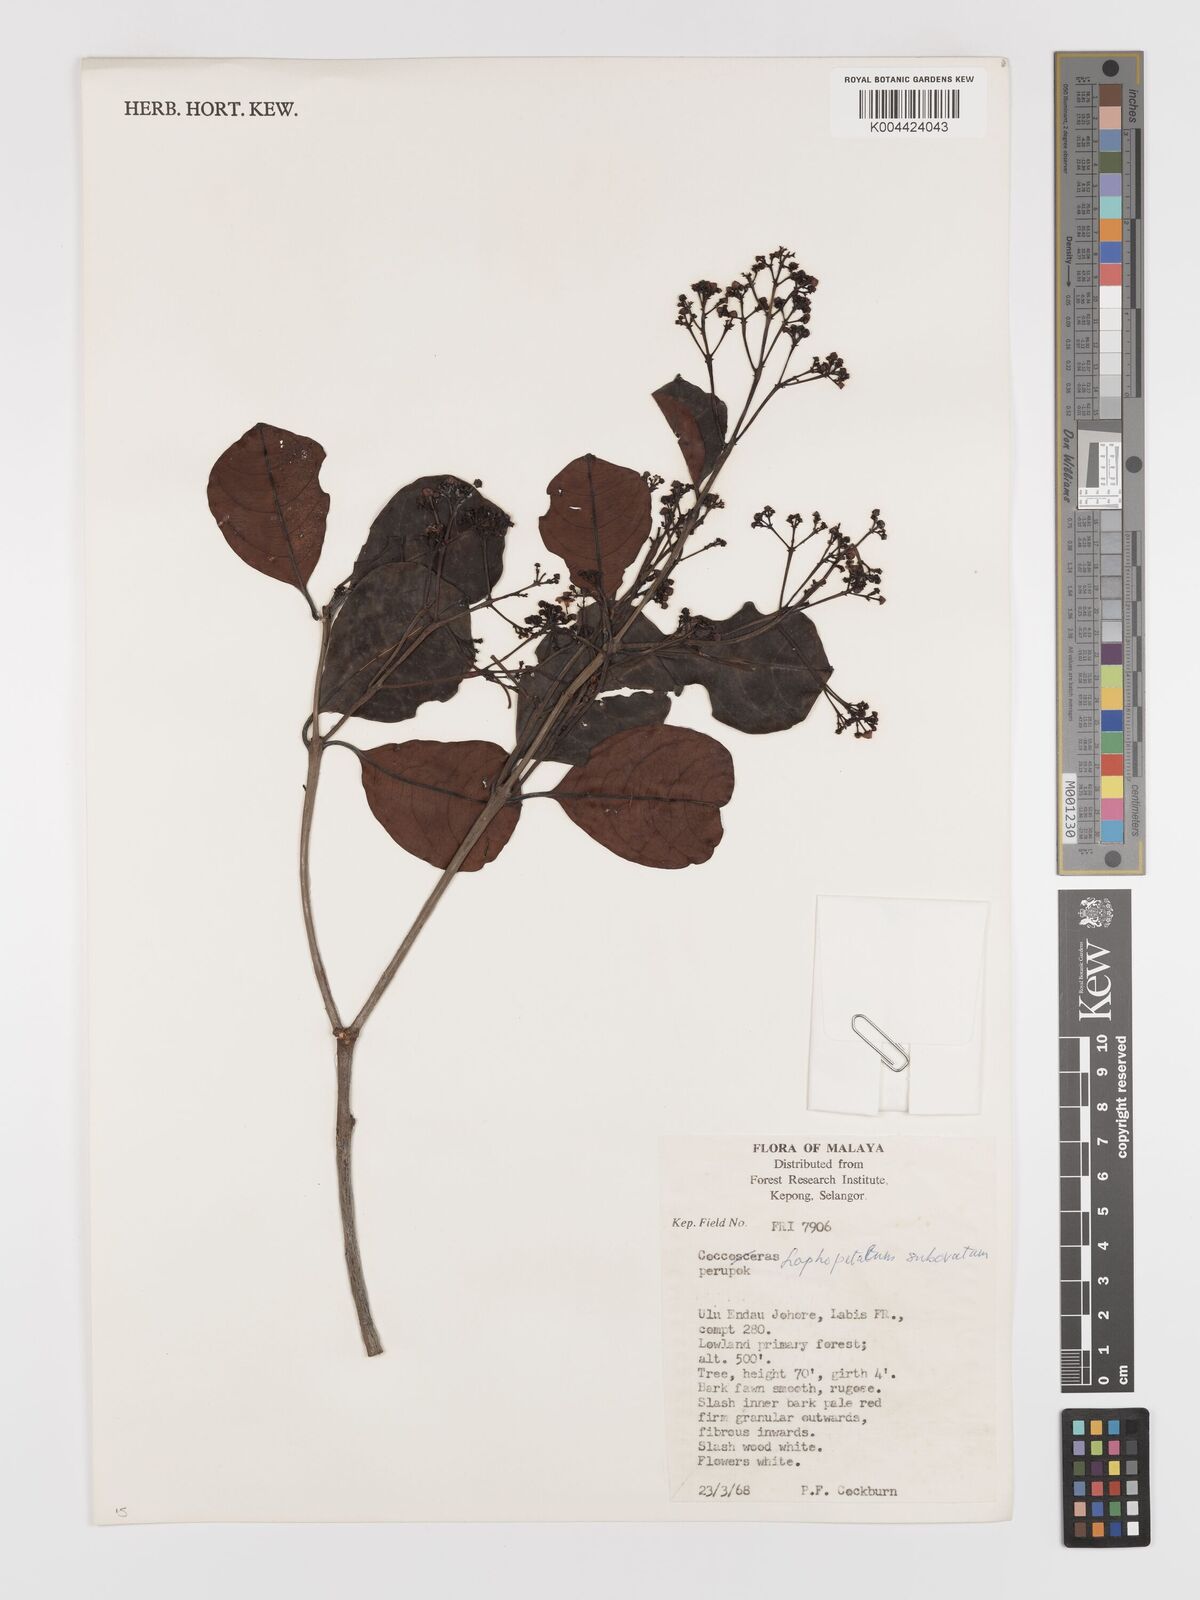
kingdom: Plantae
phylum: Tracheophyta
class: Magnoliopsida
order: Celastrales
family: Celastraceae
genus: Lophopetalum
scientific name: Lophopetalum subobovatum
